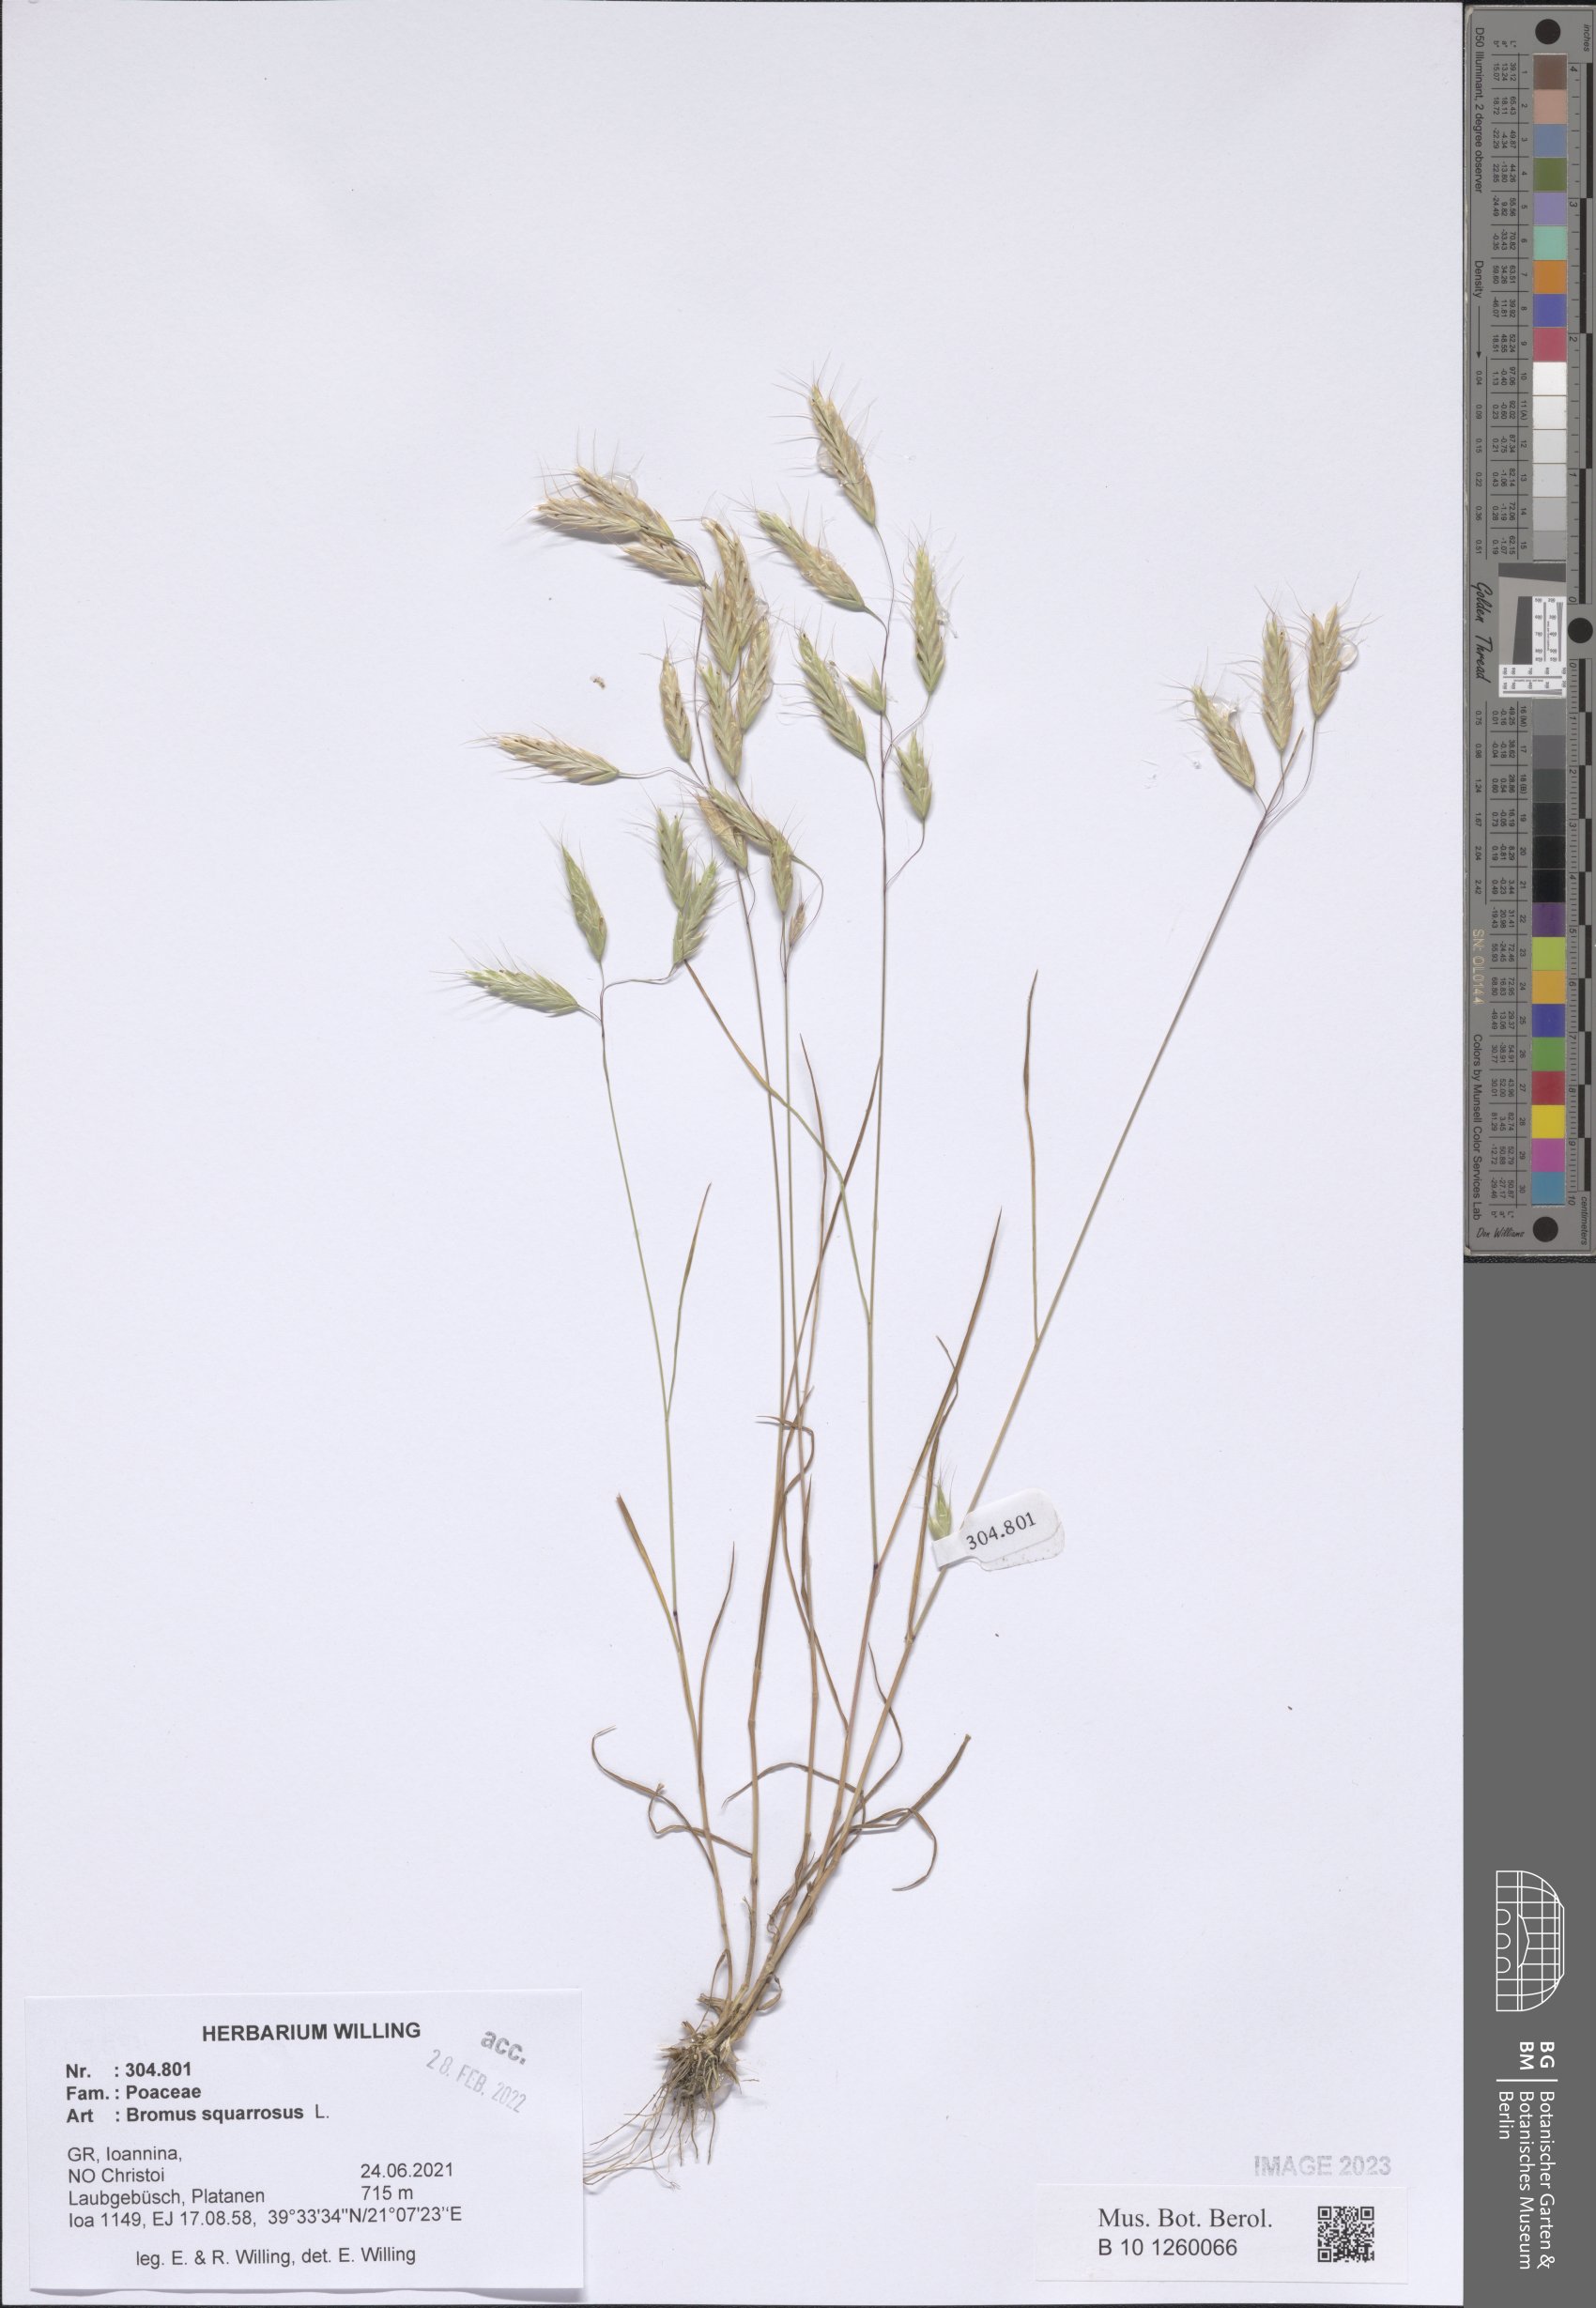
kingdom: Plantae
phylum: Tracheophyta
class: Liliopsida
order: Poales
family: Poaceae
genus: Bromus
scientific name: Bromus squarrosus
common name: Corn brome
